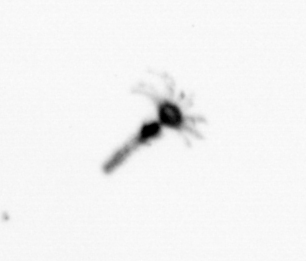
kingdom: Animalia
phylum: Cnidaria
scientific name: Cnidaria
